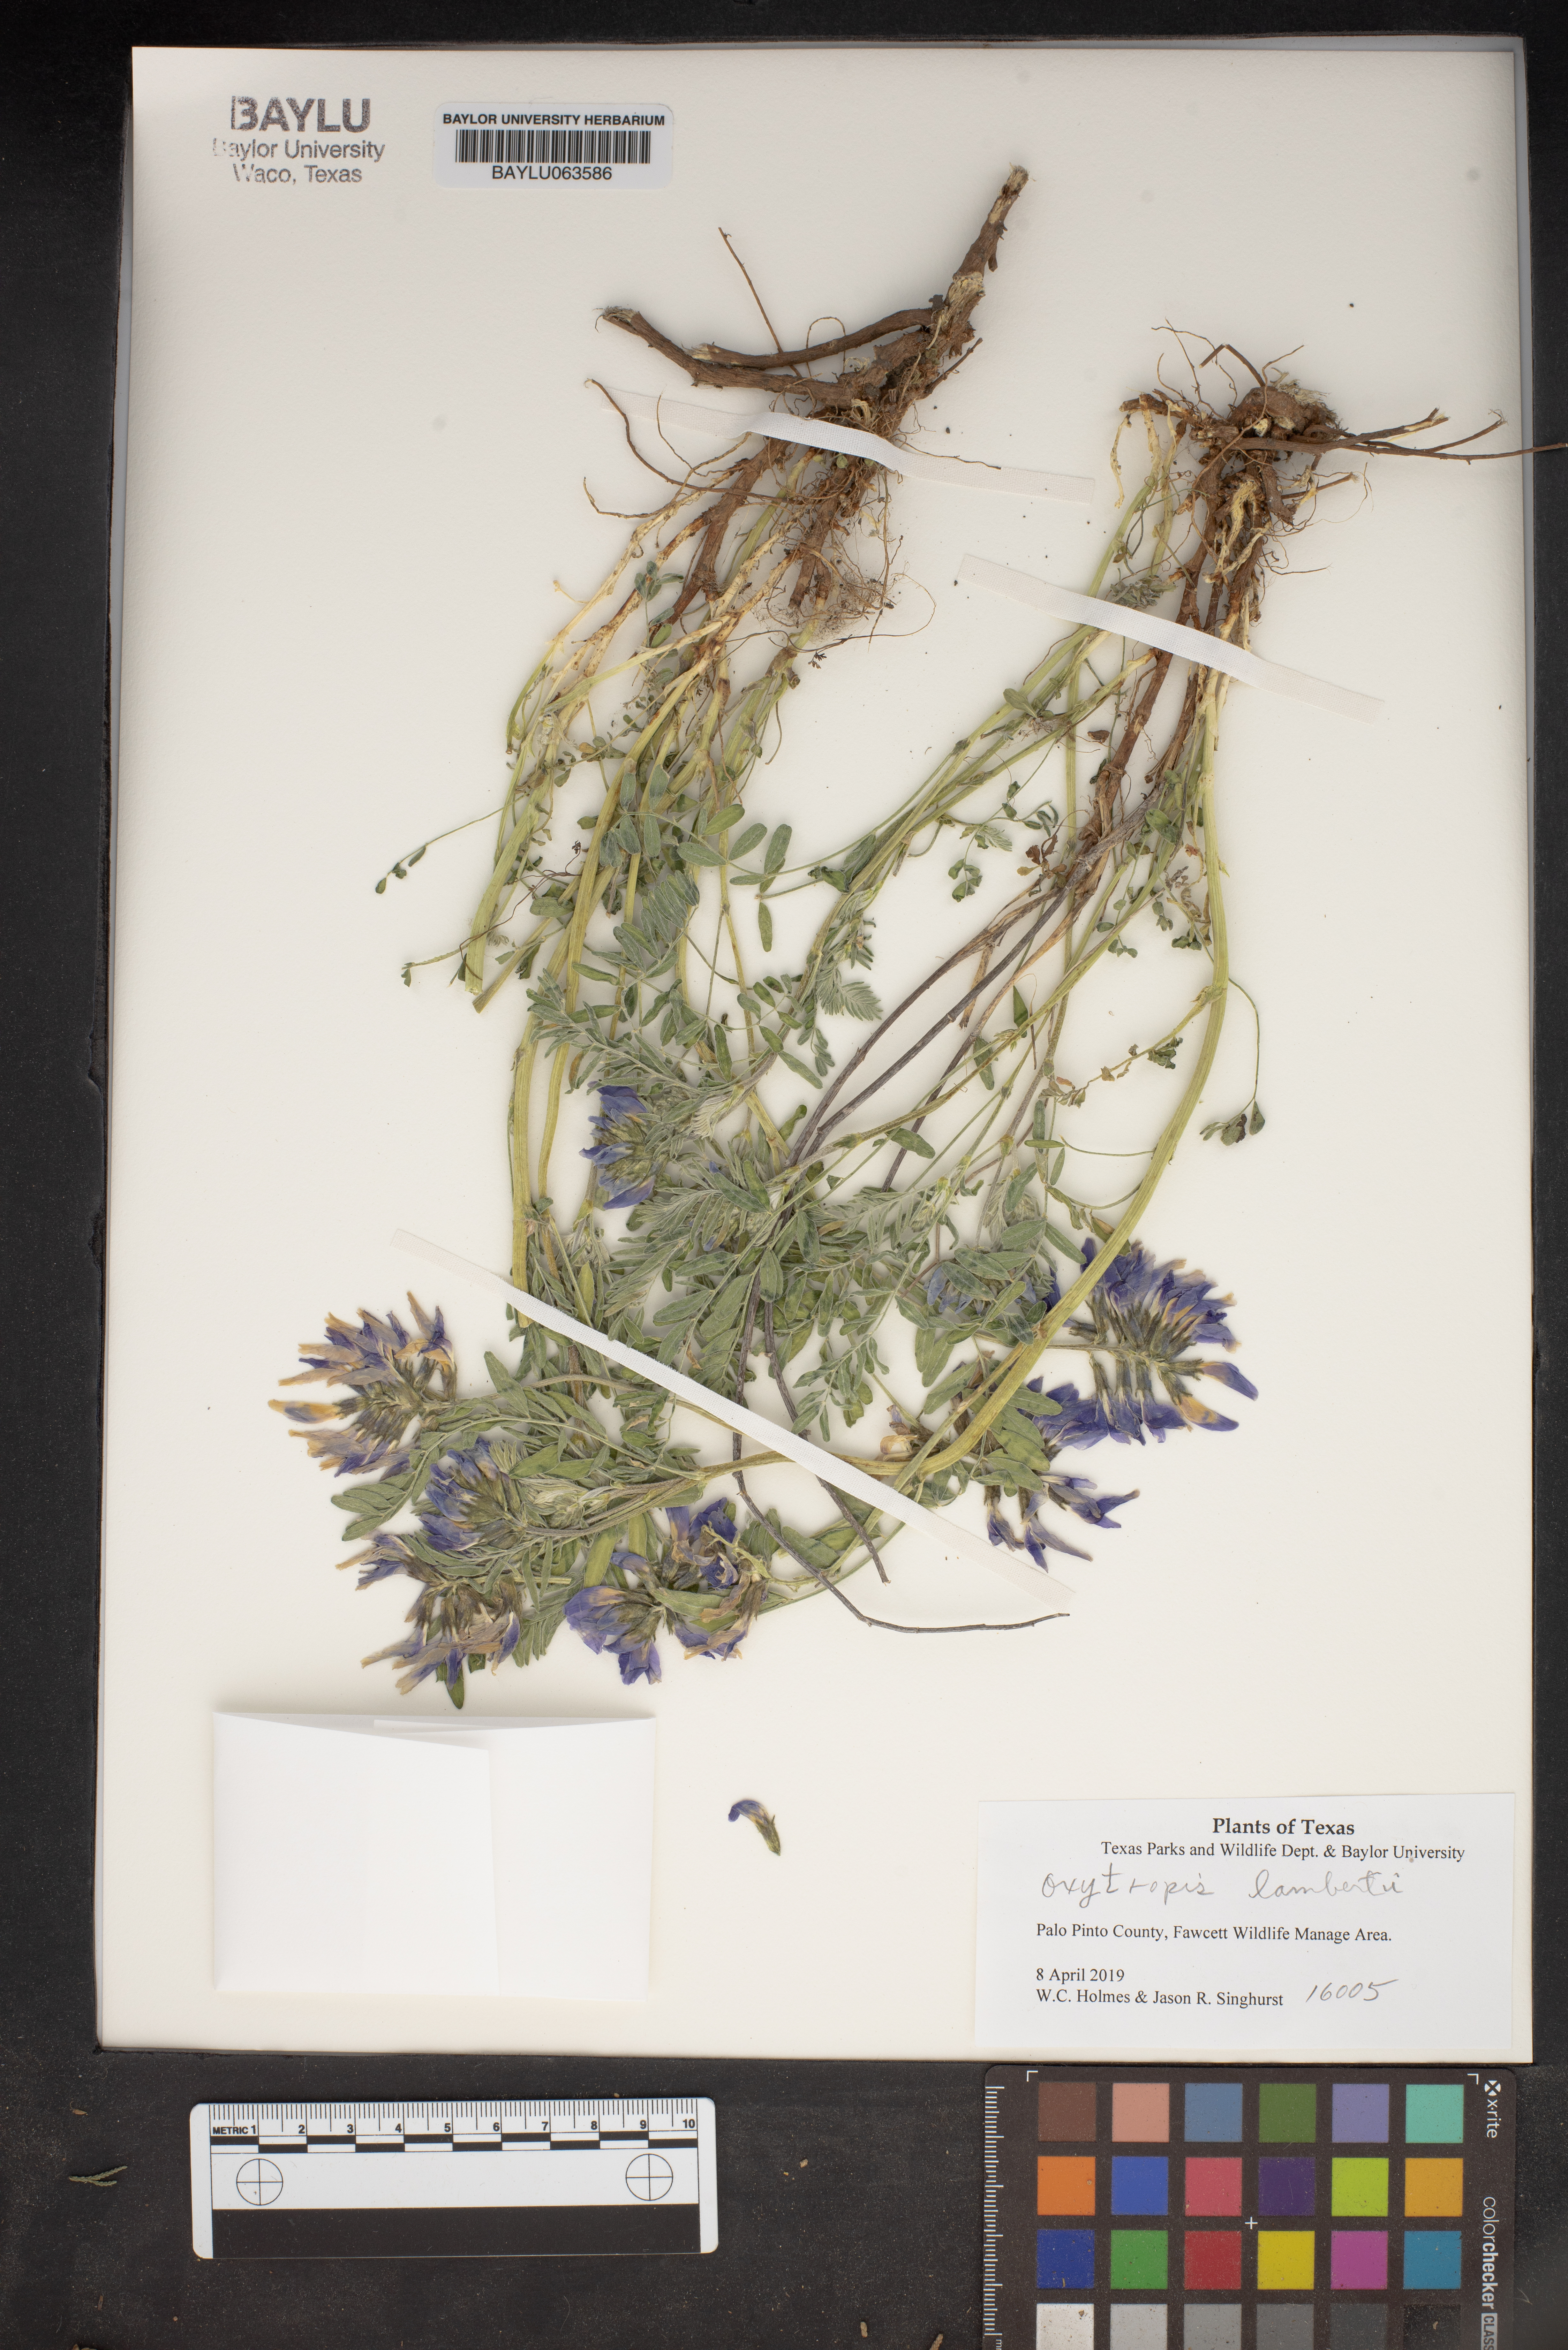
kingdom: Plantae
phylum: Tracheophyta
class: Magnoliopsida
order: Fabales
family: Fabaceae
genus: Oxytropis
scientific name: Oxytropis lambertii
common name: Purple locoweed
